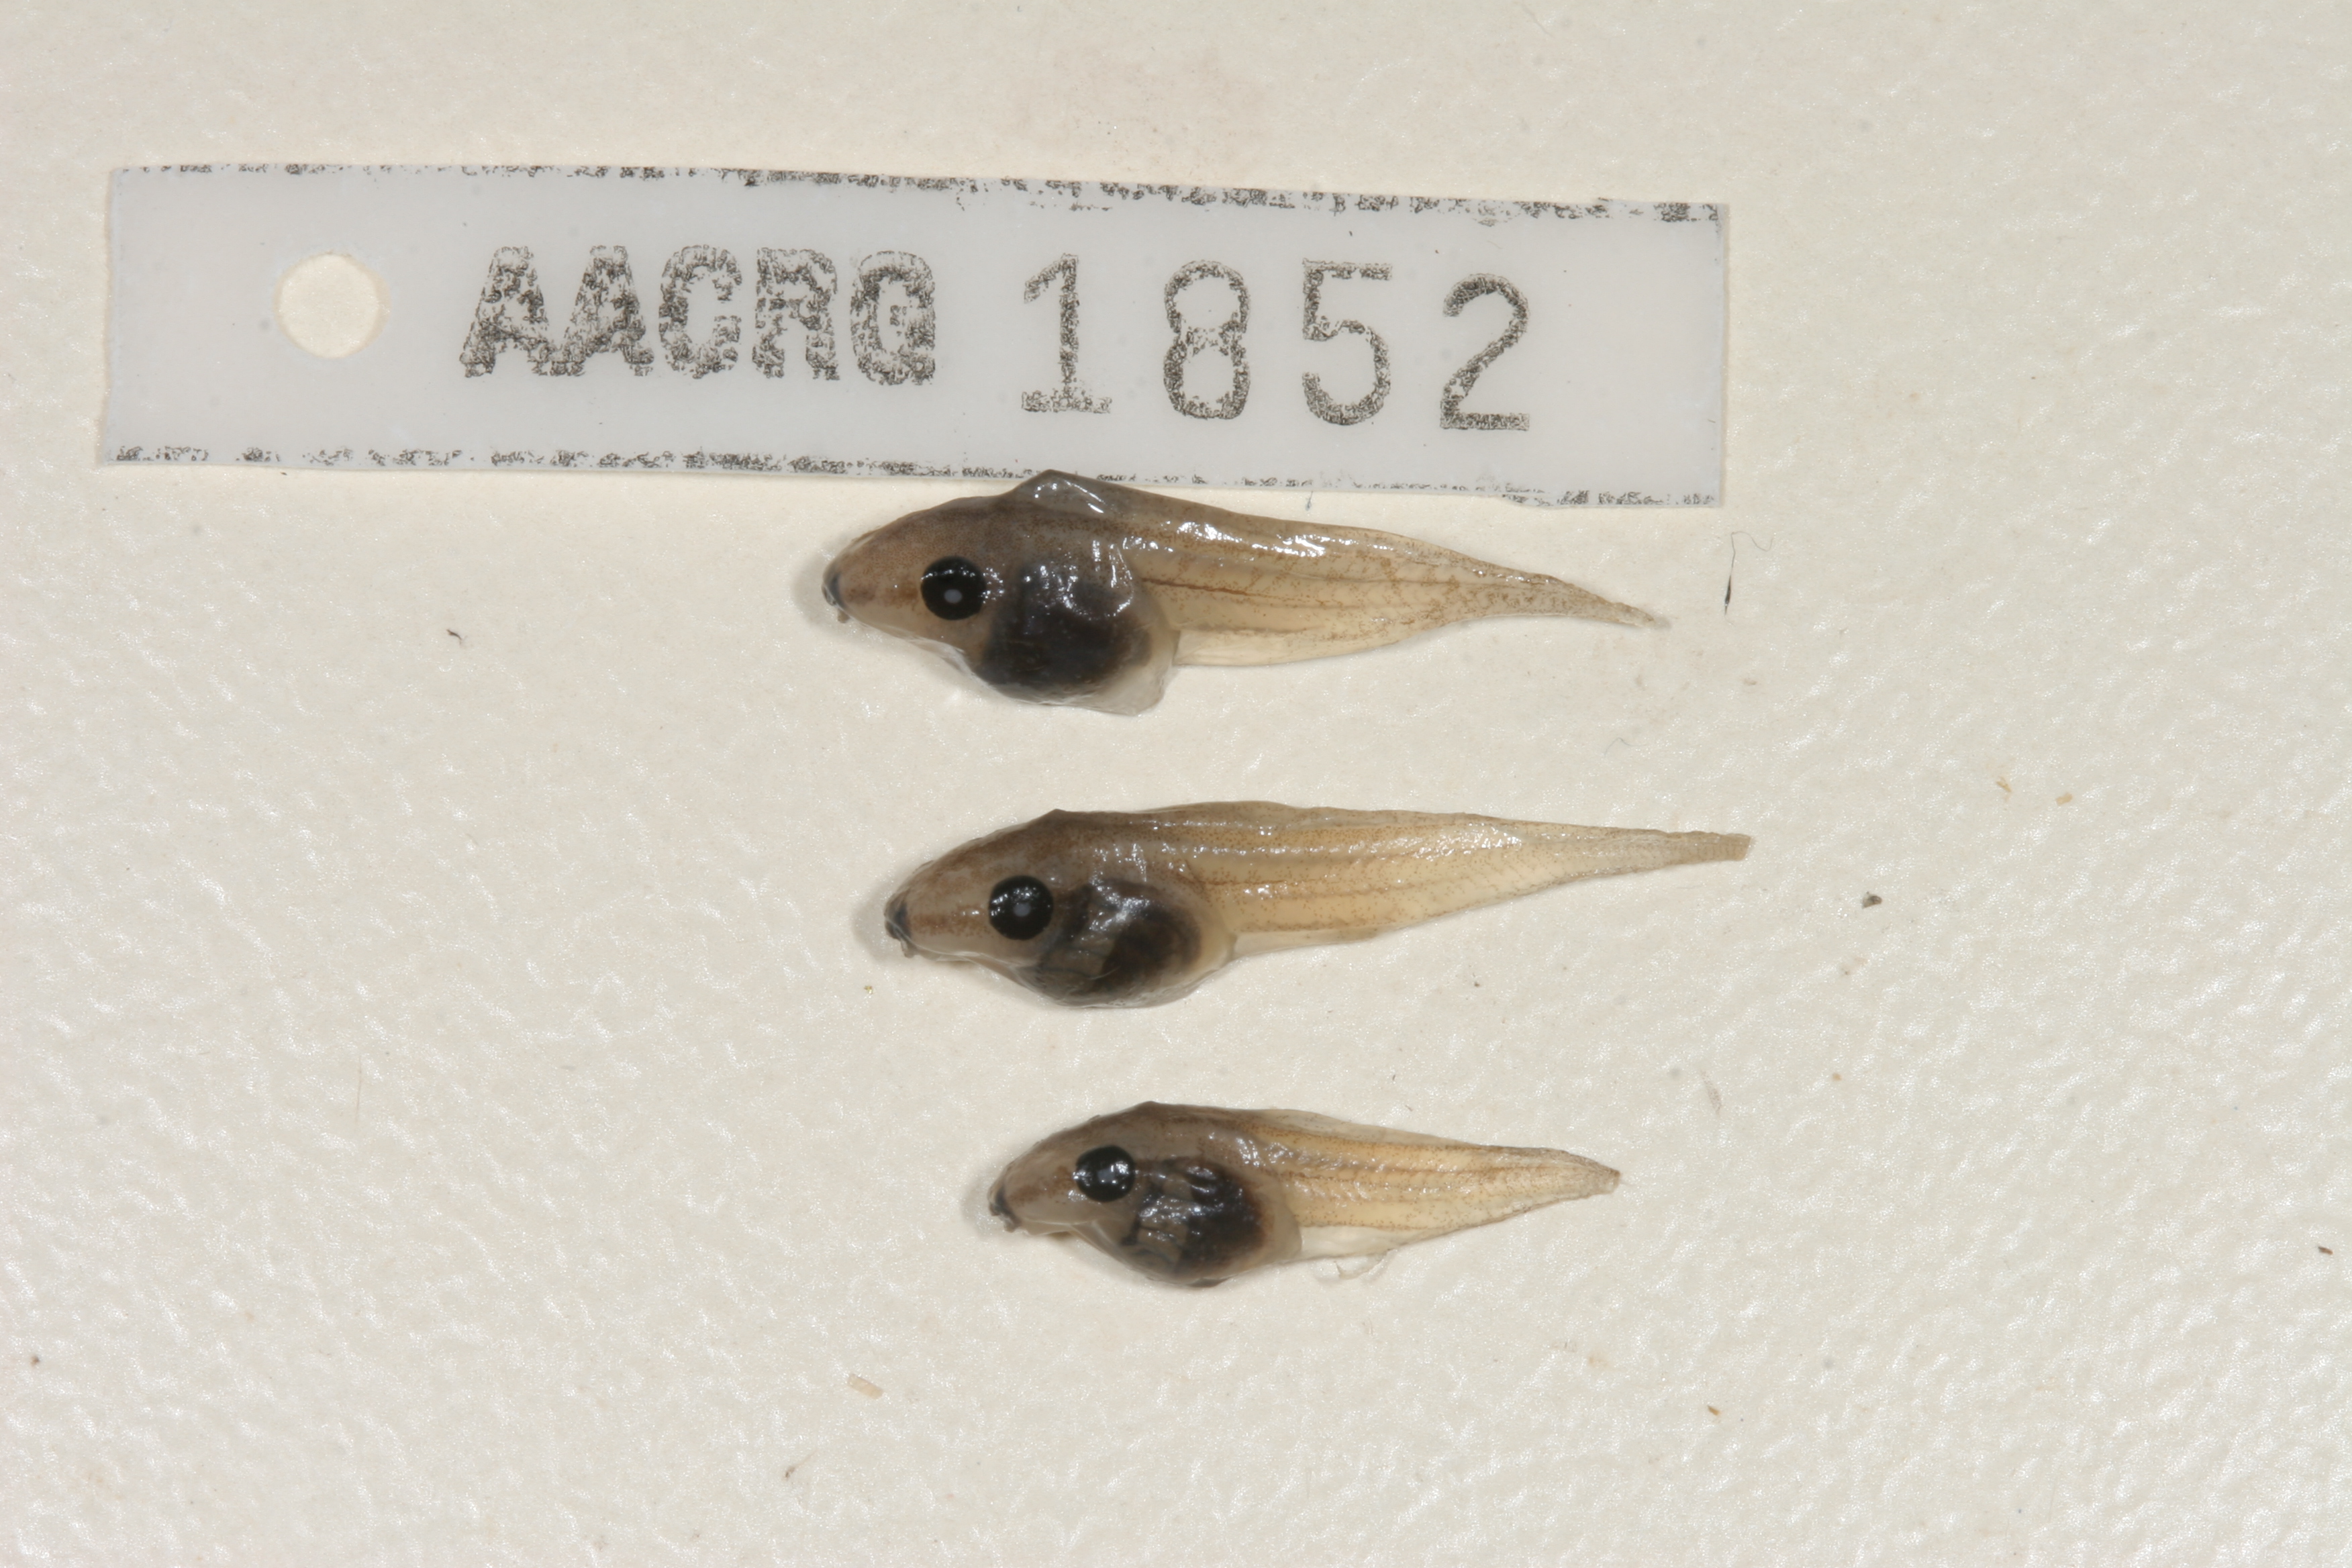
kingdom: Animalia
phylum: Chordata
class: Amphibia
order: Anura
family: Hyperoliidae
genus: Kassina
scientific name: Kassina senegalensis
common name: Senegal land frog
